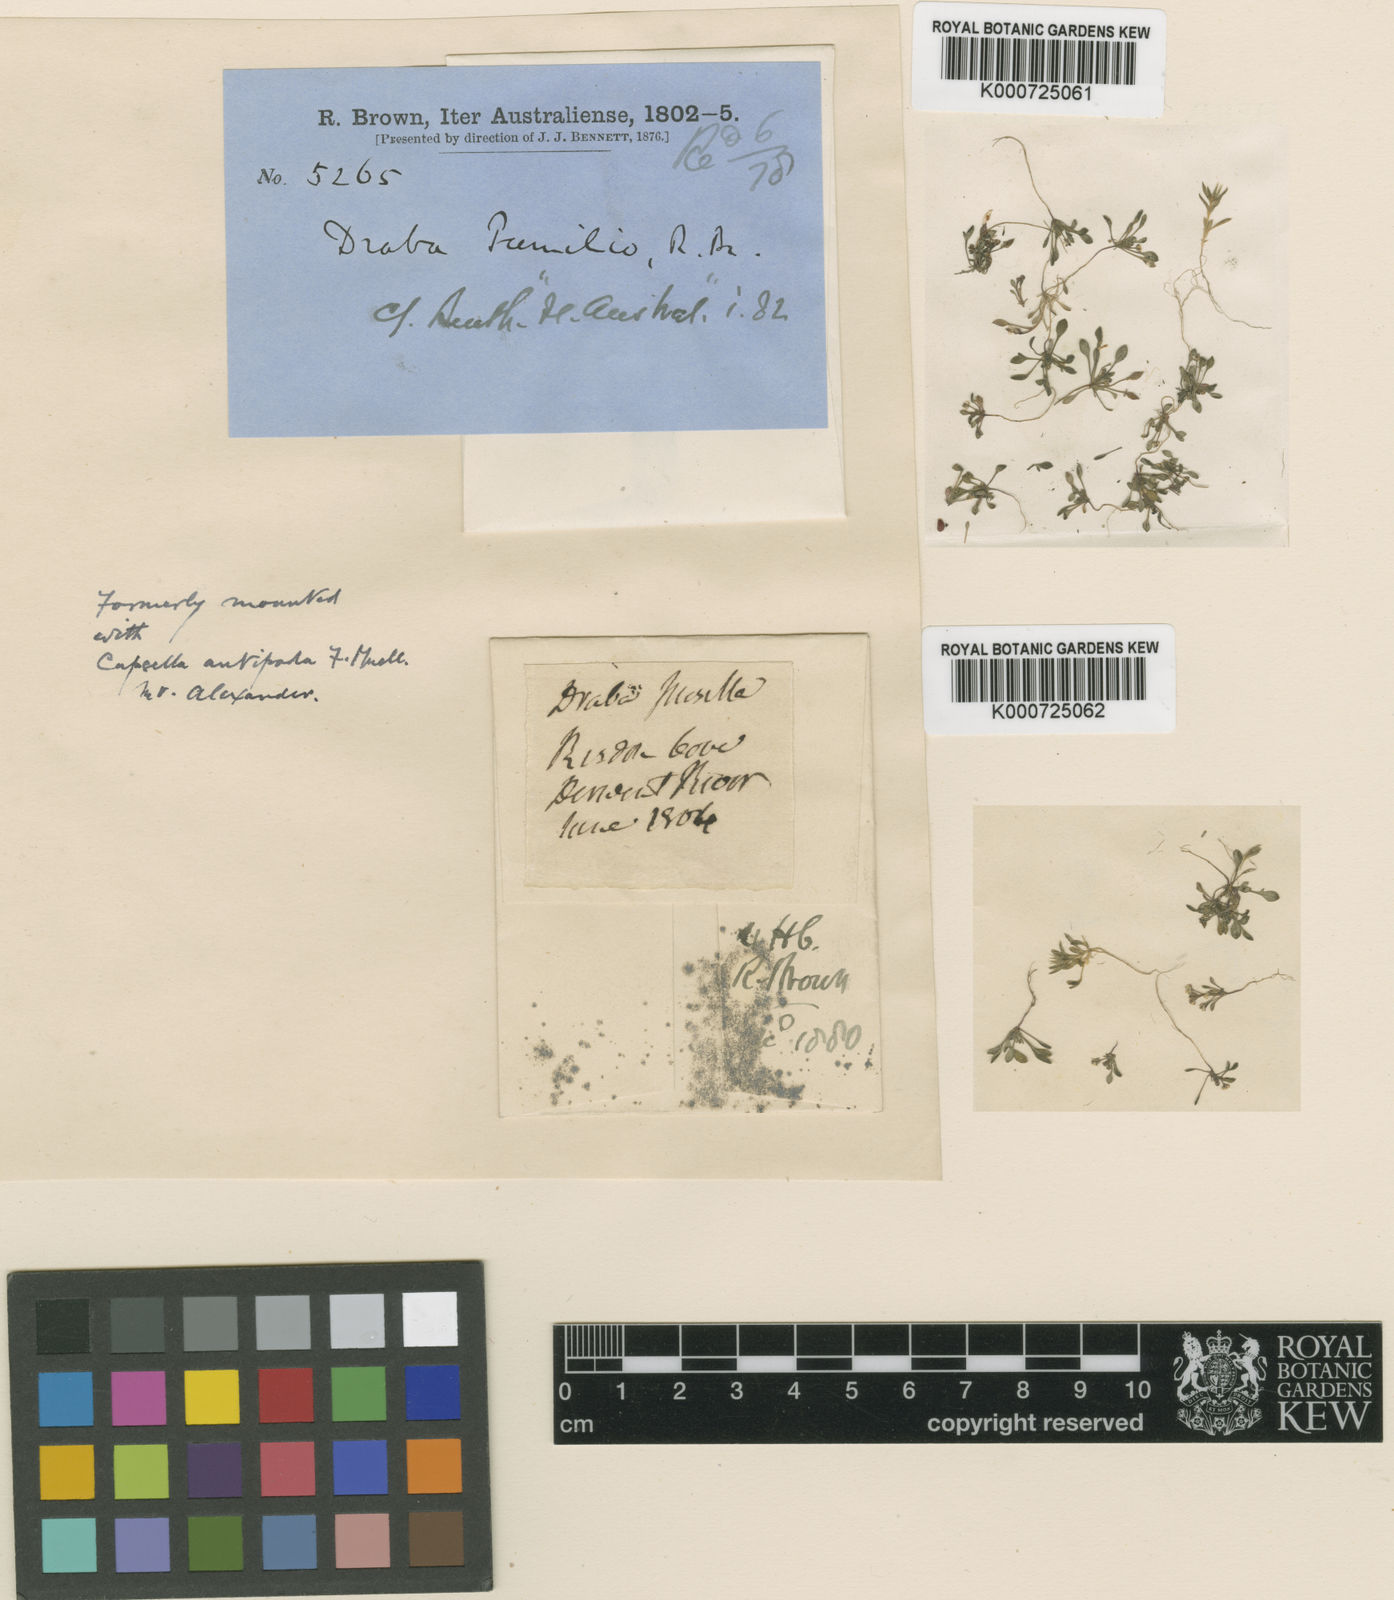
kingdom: Plantae
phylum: Tracheophyta
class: Magnoliopsida
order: Brassicales
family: Brassicaceae
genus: Ballantinia
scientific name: Ballantinia antipoda
